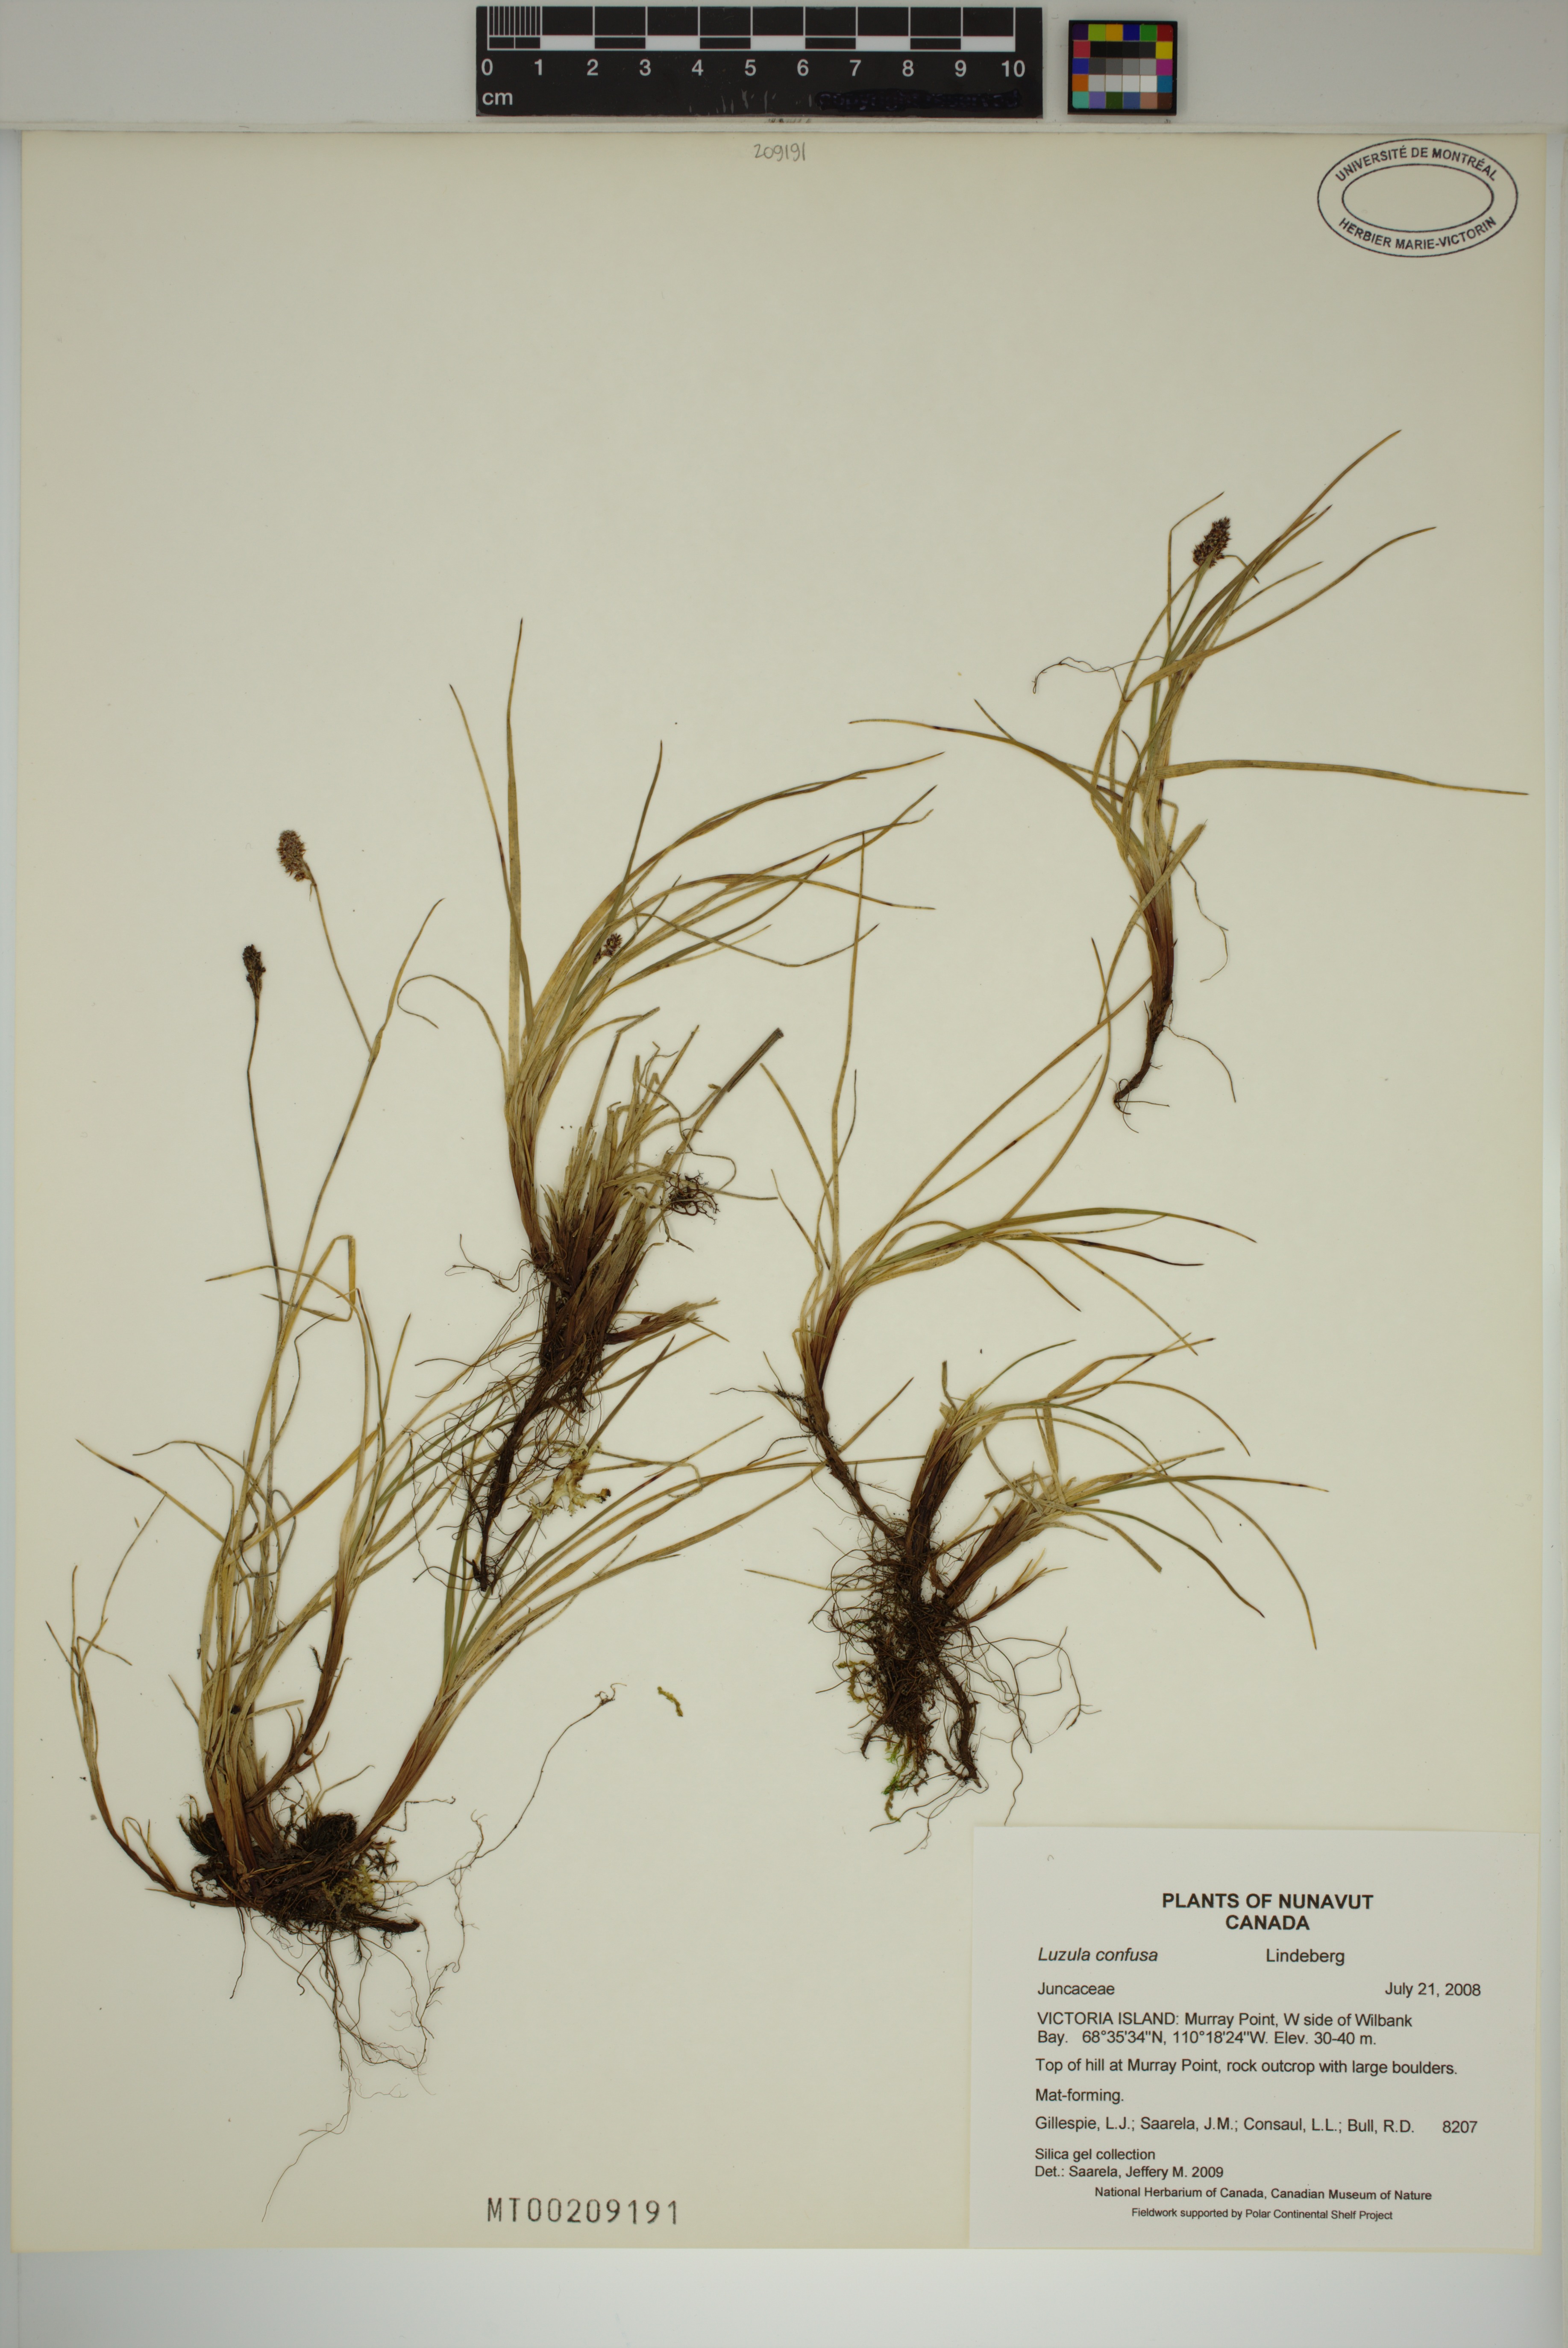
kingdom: Plantae
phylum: Tracheophyta
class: Liliopsida
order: Poales
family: Juncaceae
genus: Luzula
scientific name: Luzula confusa
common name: Northern wood rush
